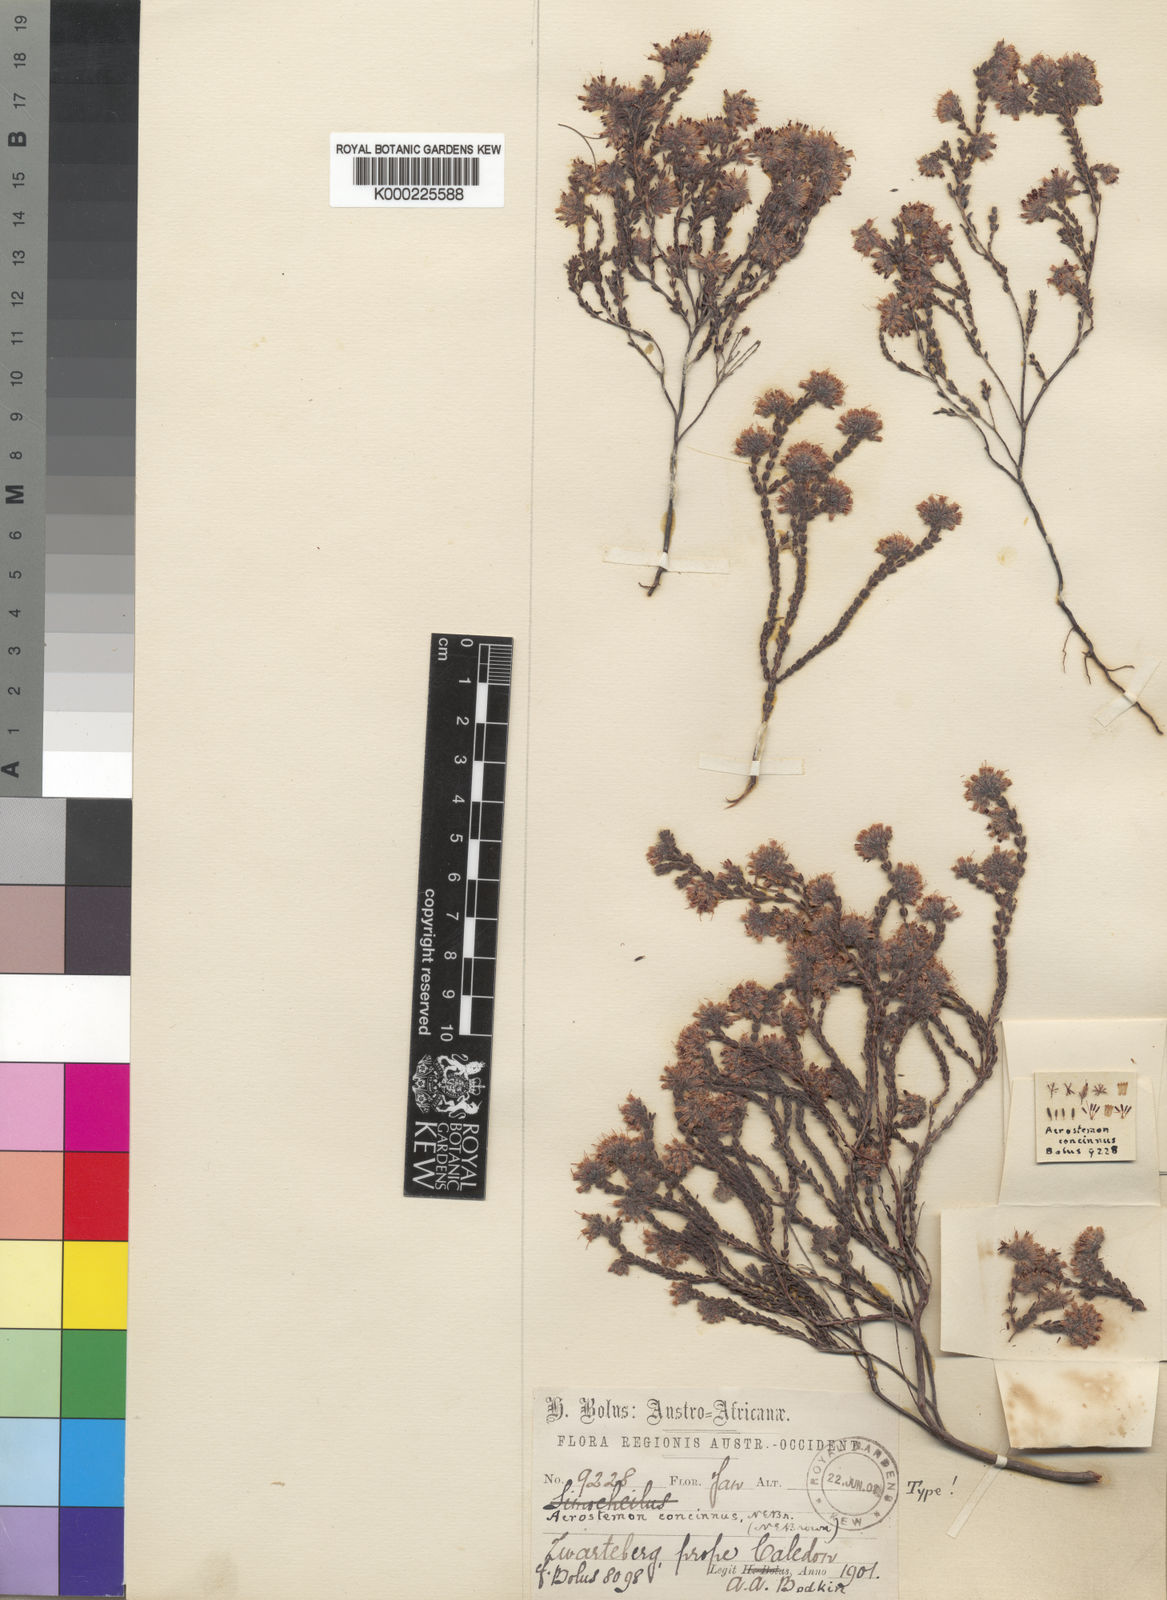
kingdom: Plantae
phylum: Tracheophyta
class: Magnoliopsida
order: Ericales
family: Ericaceae
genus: Erica
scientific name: Erica russakiana
